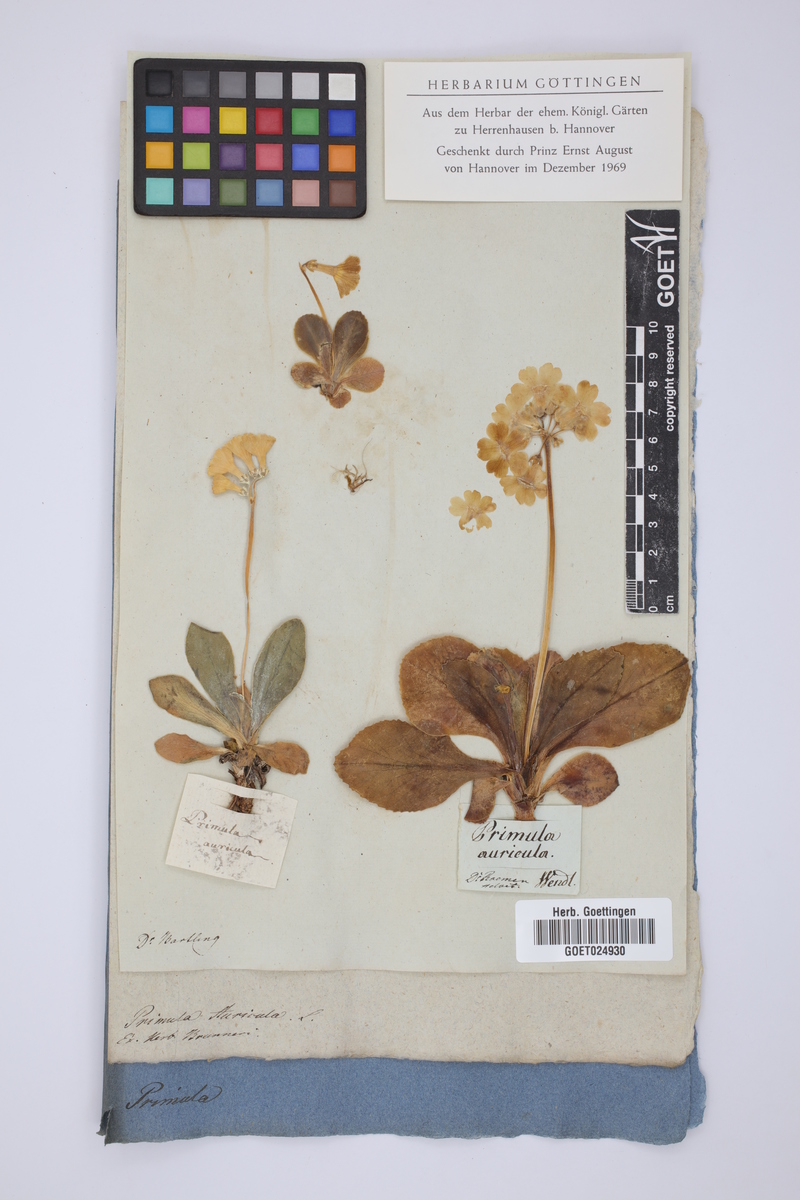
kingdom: Plantae
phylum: Tracheophyta
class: Magnoliopsida
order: Ericales
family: Primulaceae
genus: Primula
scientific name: Primula auricula
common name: Auricula
